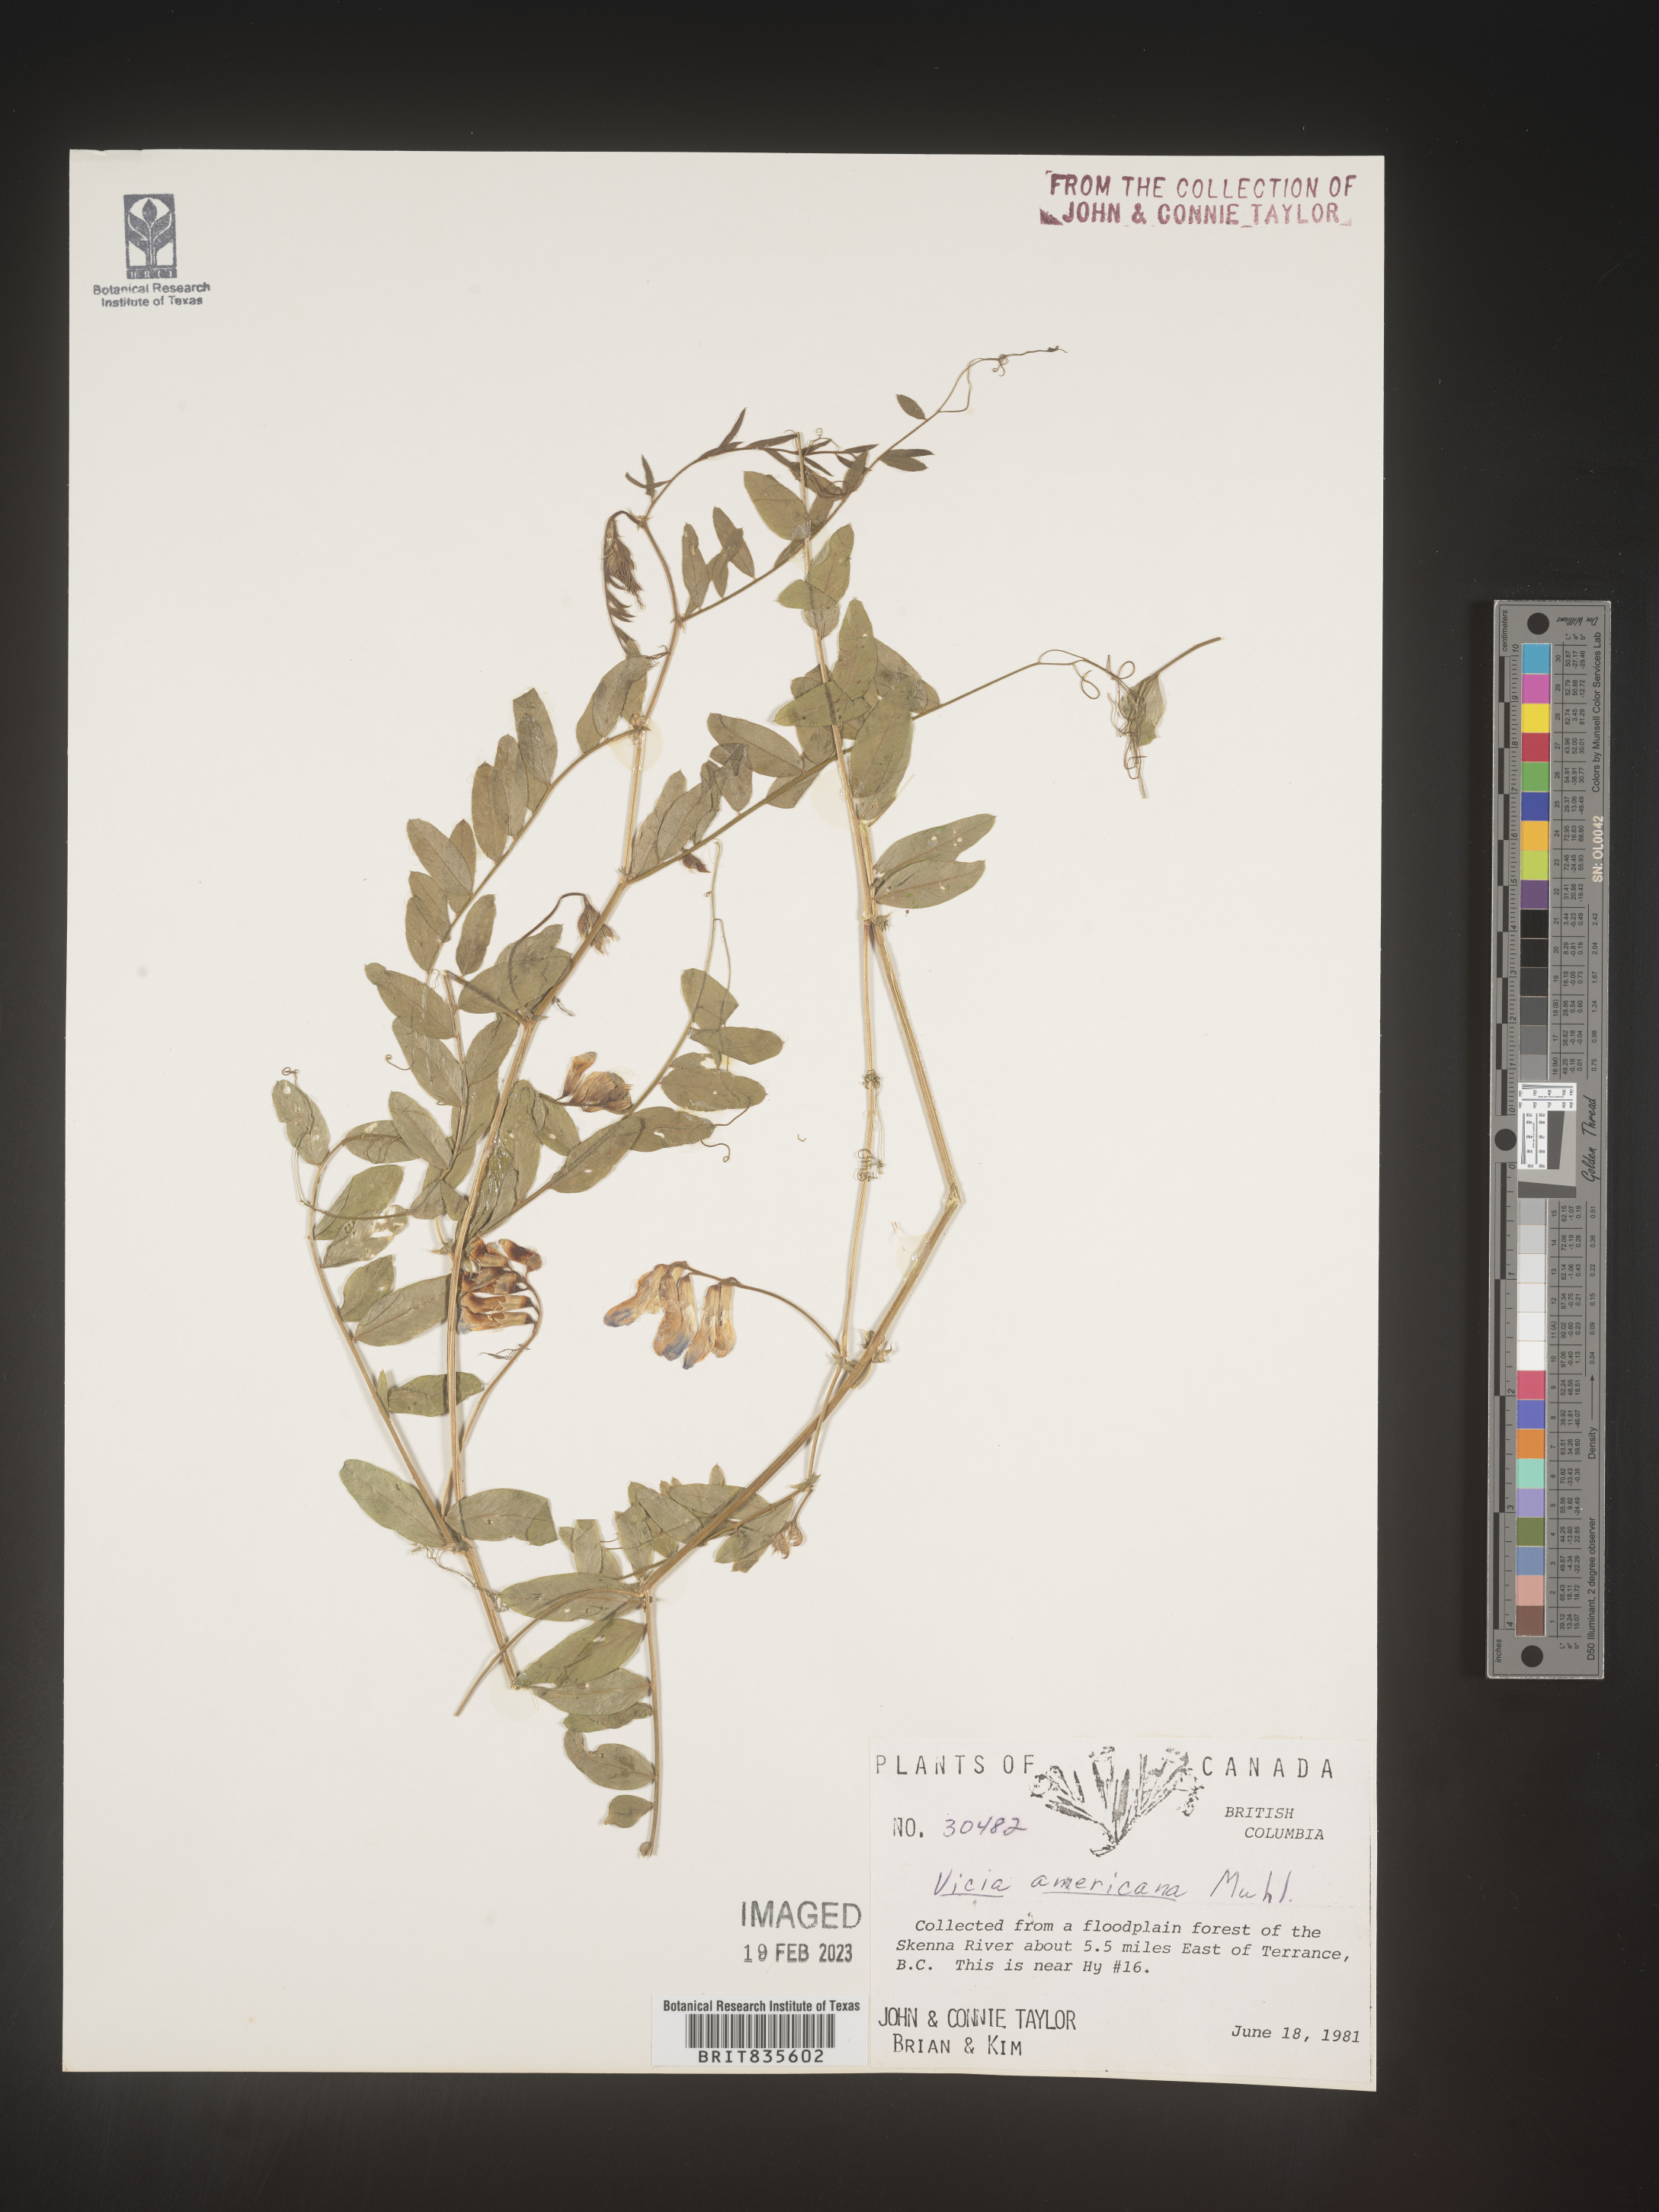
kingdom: Plantae
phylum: Tracheophyta
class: Magnoliopsida
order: Fabales
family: Fabaceae
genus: Vicia
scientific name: Vicia americana
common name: American vetch
